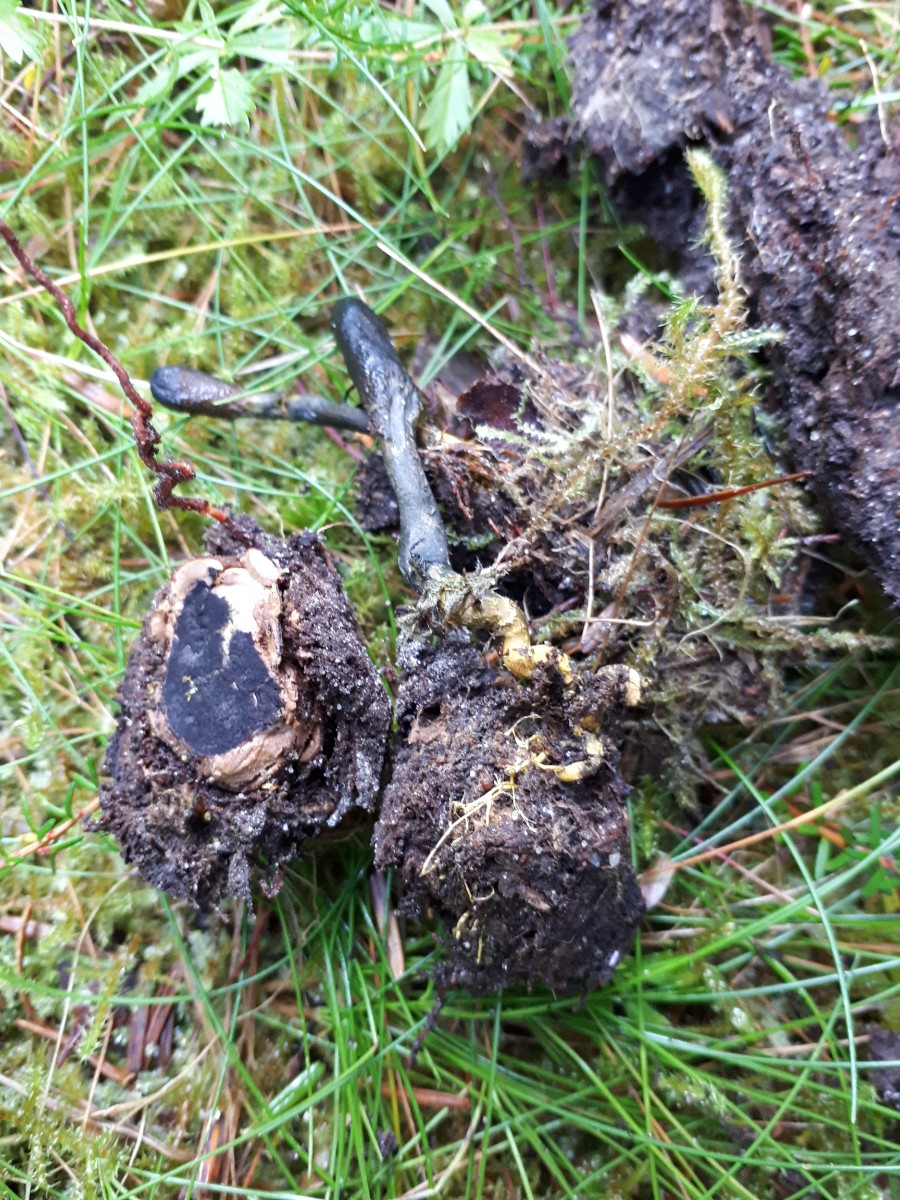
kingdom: Fungi
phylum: Ascomycota
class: Eurotiomycetes
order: Eurotiales
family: Elaphomycetaceae
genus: Elaphomyces
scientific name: Elaphomyces muricatus
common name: vortet hjortetrøffel
